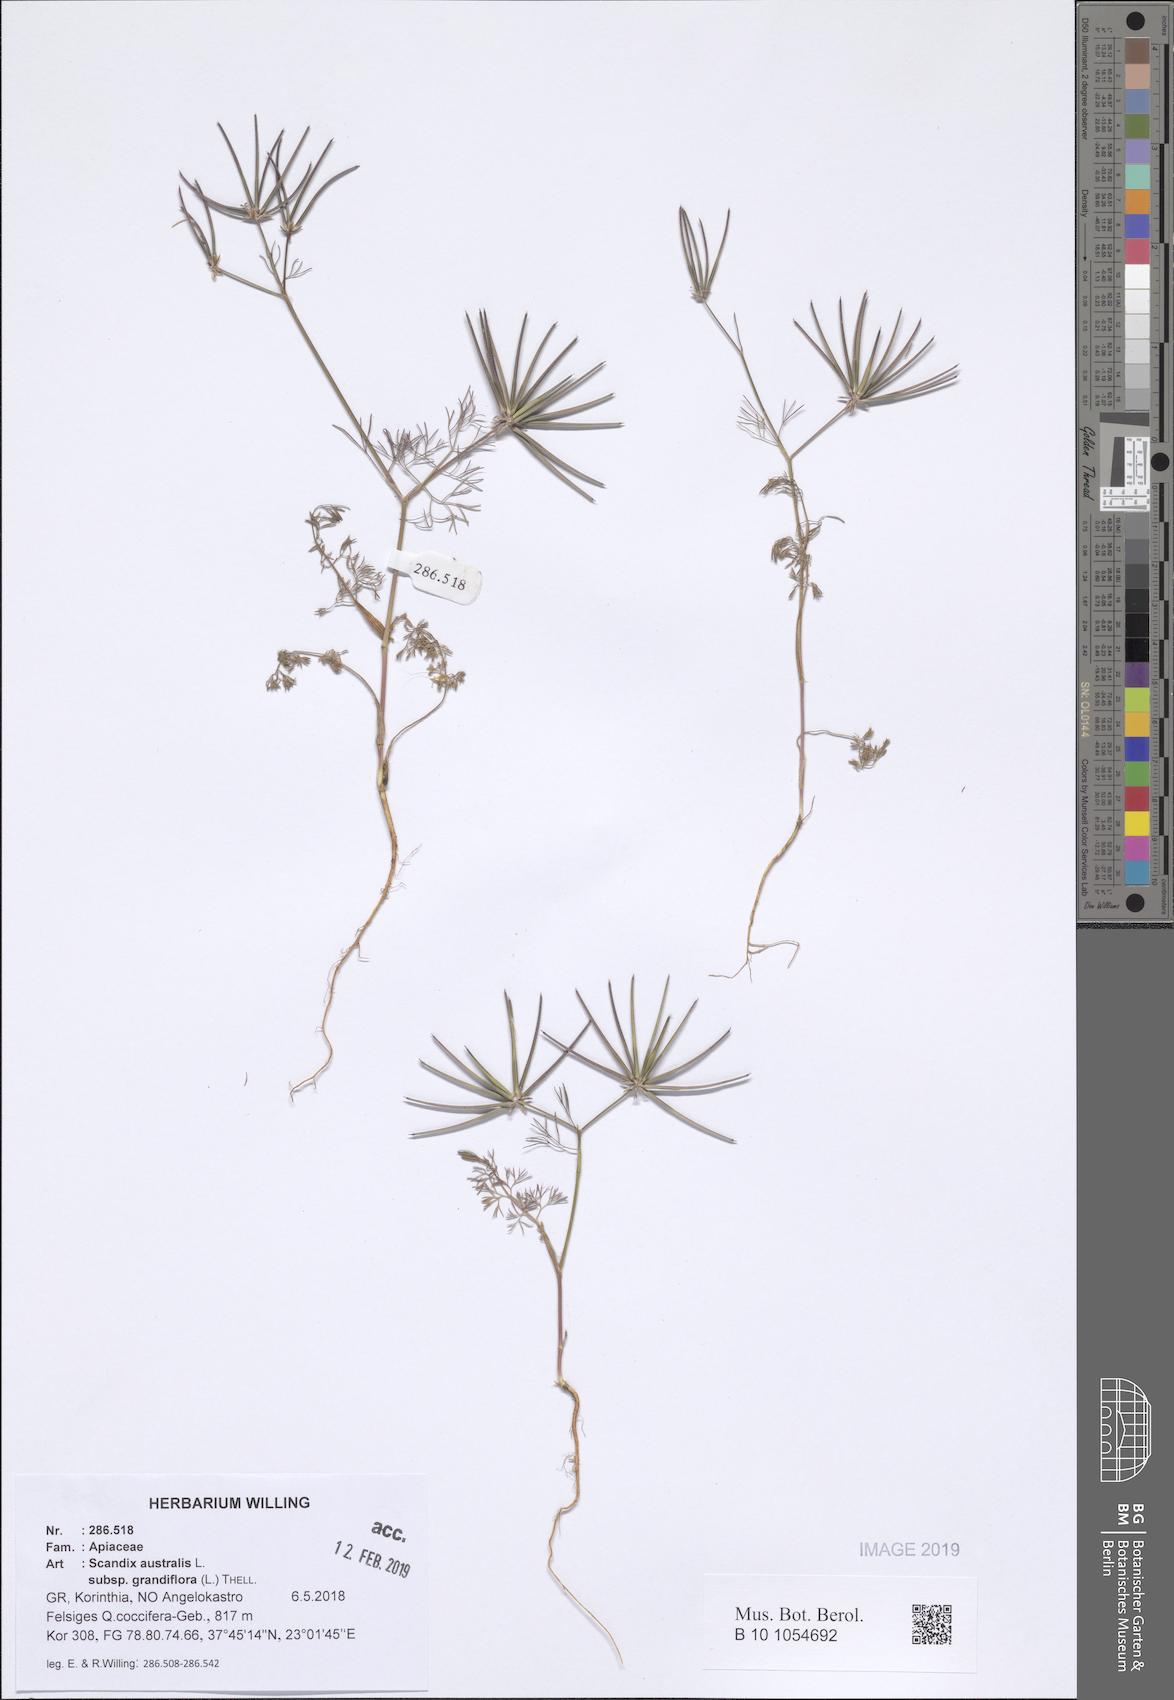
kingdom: Plantae
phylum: Tracheophyta
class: Magnoliopsida
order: Apiales
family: Apiaceae
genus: Scandix
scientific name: Scandix australis
